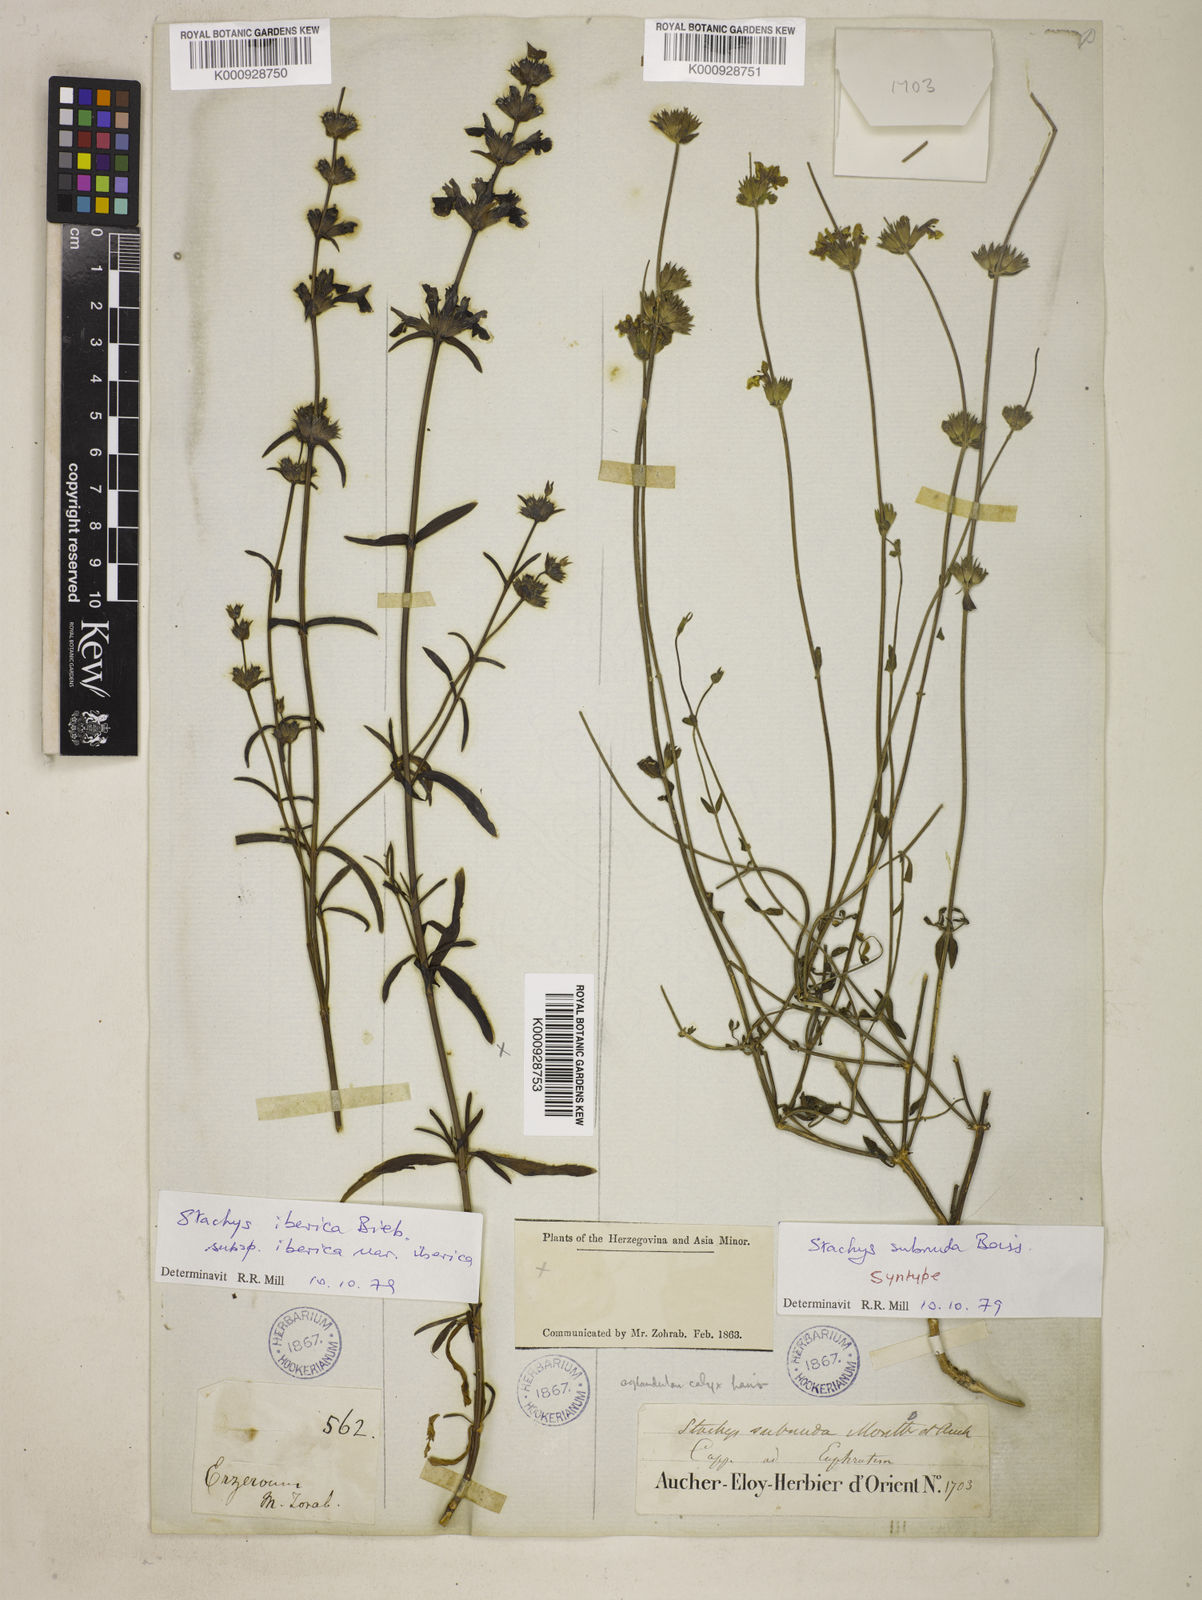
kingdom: Plantae
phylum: Tracheophyta
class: Magnoliopsida
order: Lamiales
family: Lamiaceae
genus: Stachys
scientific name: Stachys subnuda
